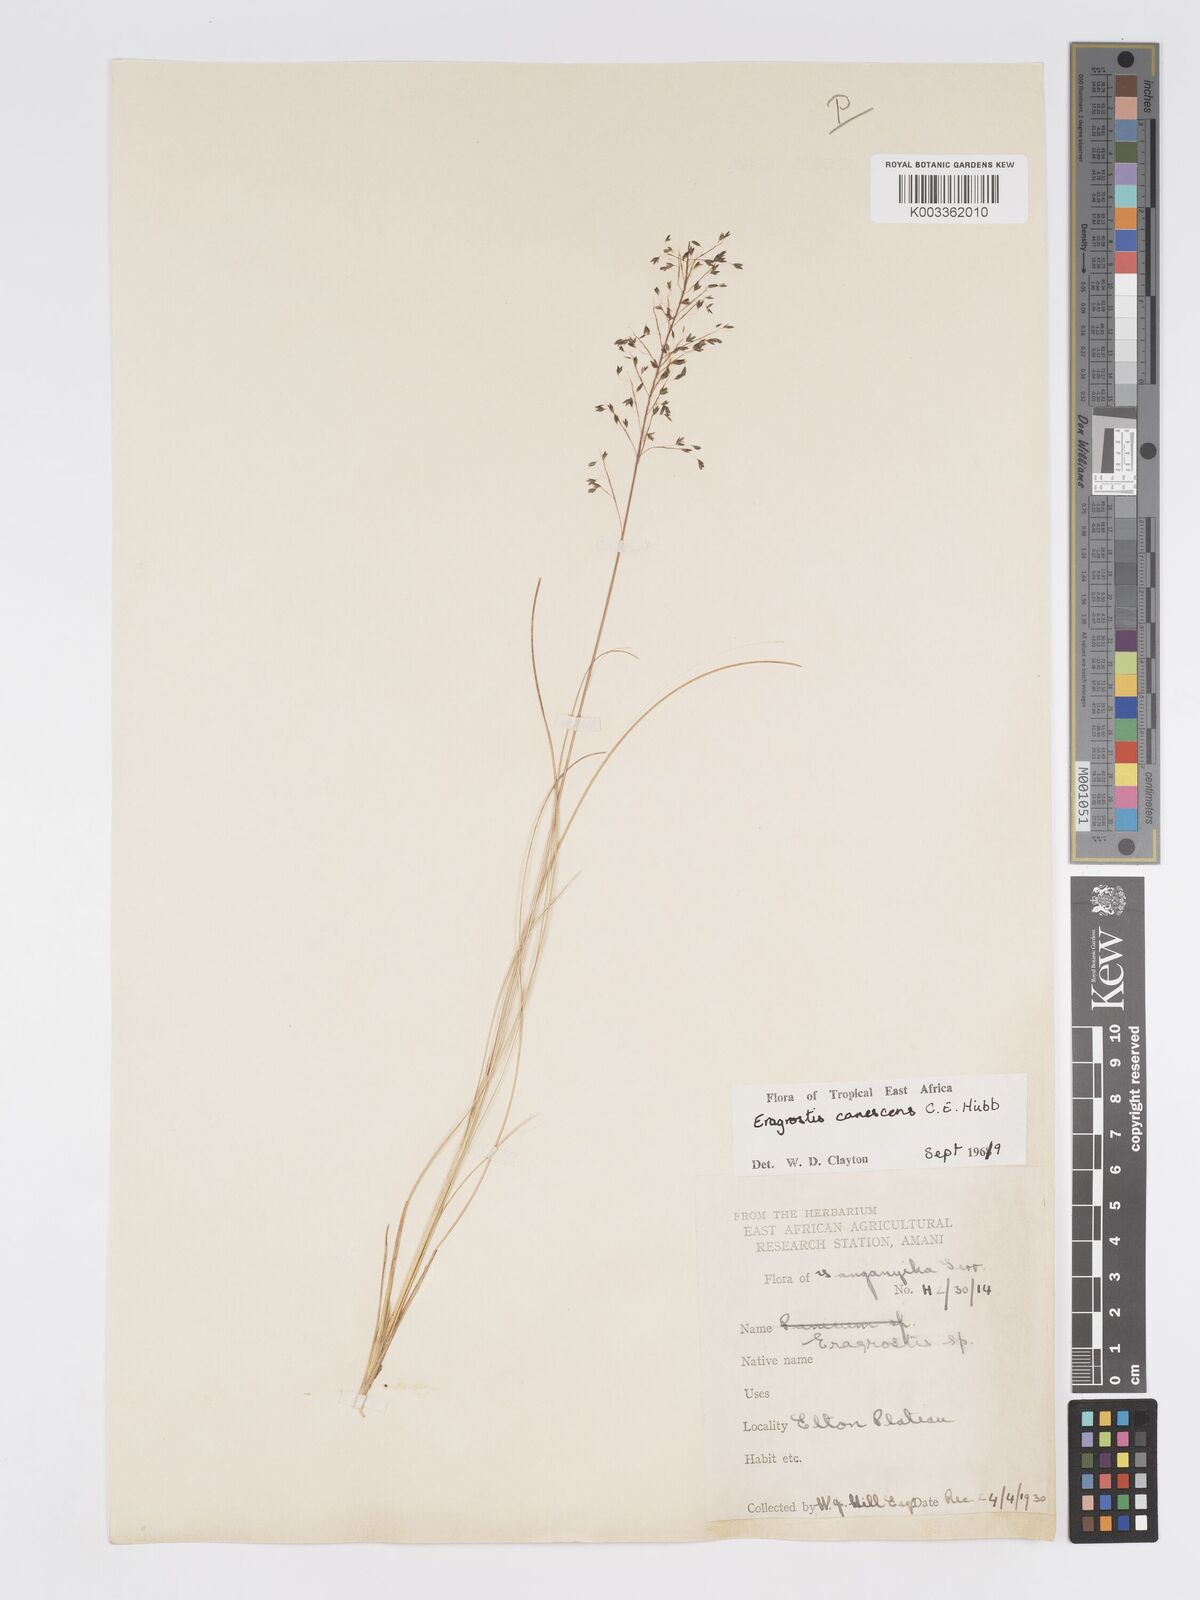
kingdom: Plantae
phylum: Tracheophyta
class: Liliopsida
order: Poales
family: Poaceae
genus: Eragrostis
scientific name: Eragrostis canescens
